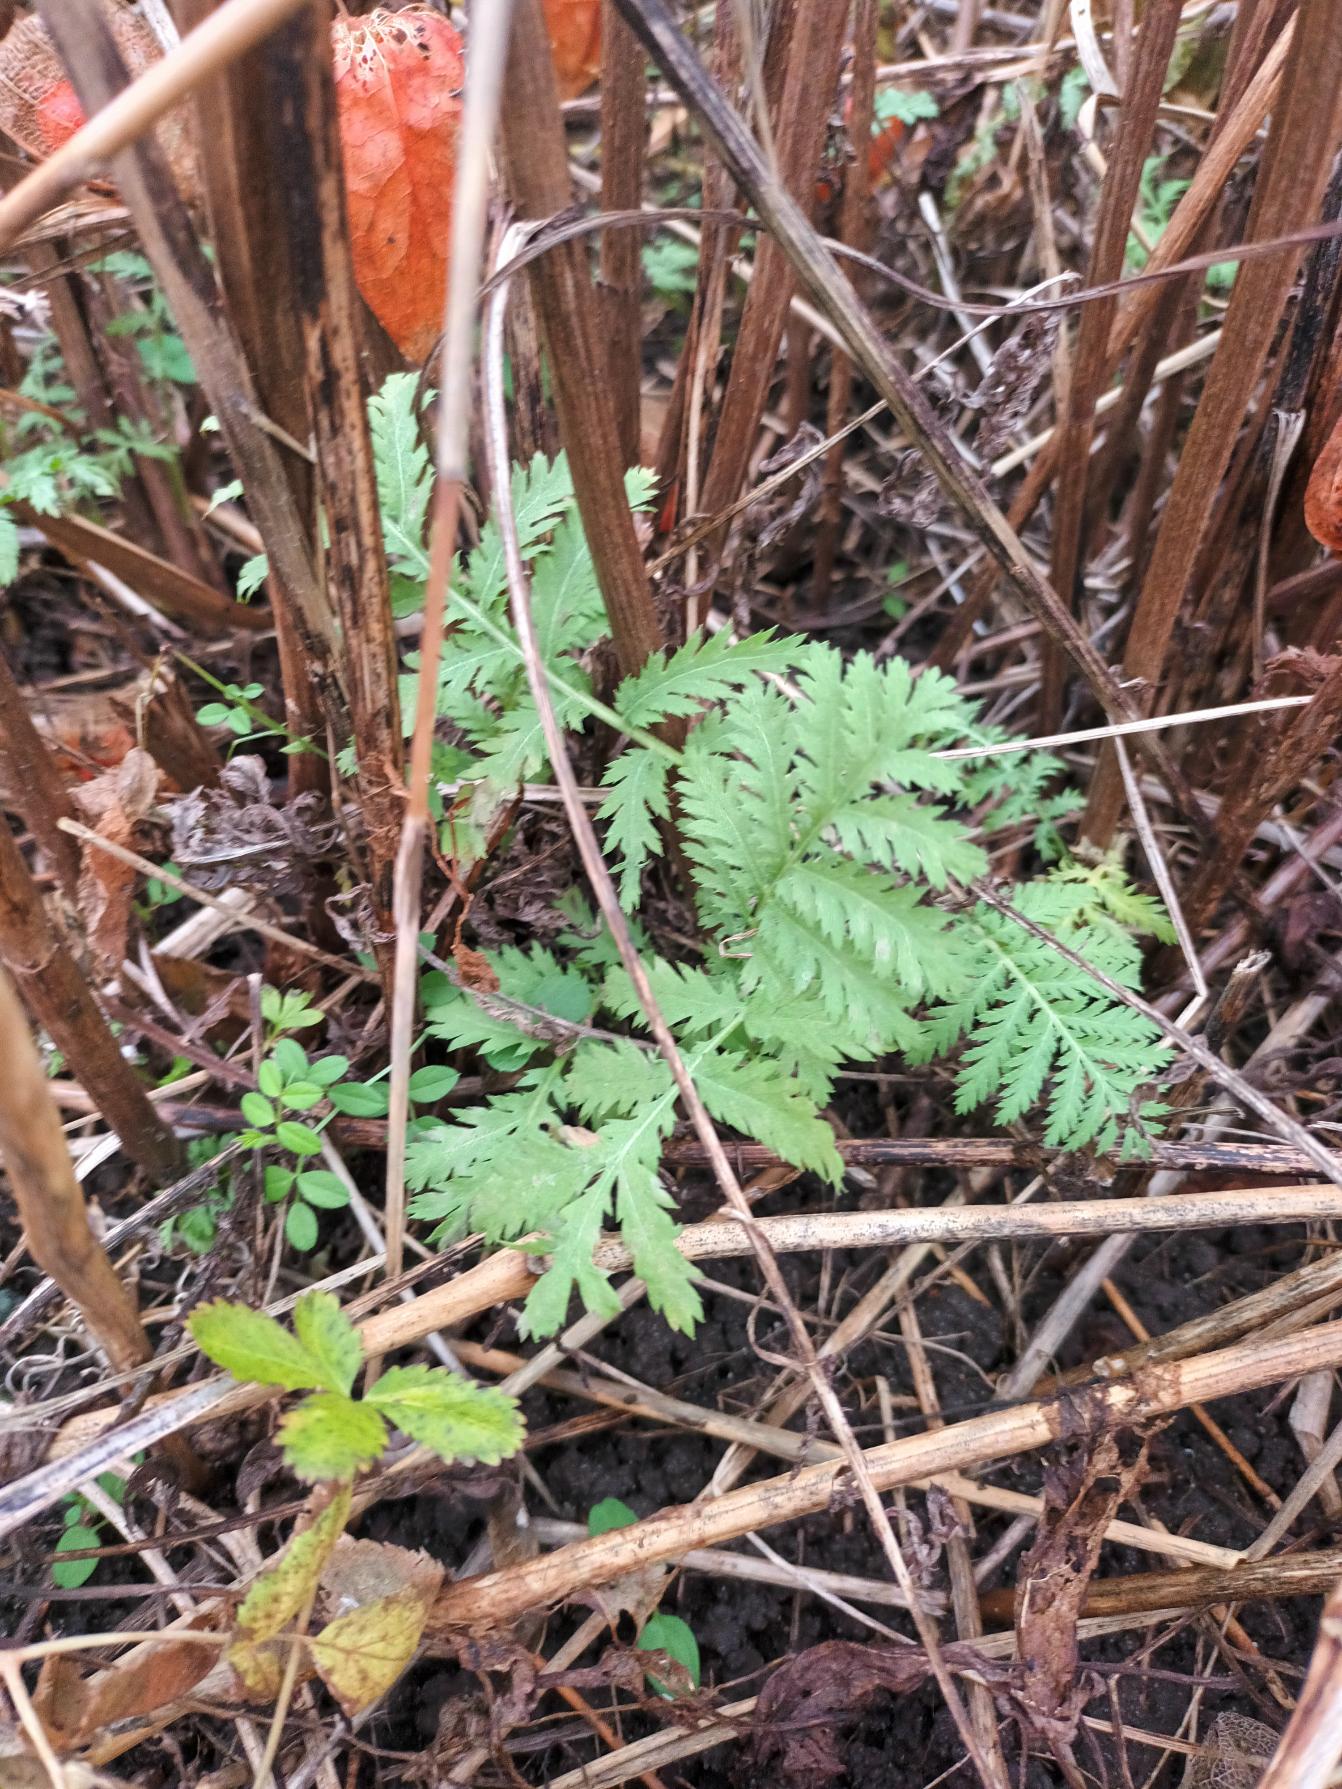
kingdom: Plantae
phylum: Tracheophyta
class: Magnoliopsida
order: Asterales
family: Asteraceae
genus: Tanacetum
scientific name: Tanacetum vulgare
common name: Rejnfan
